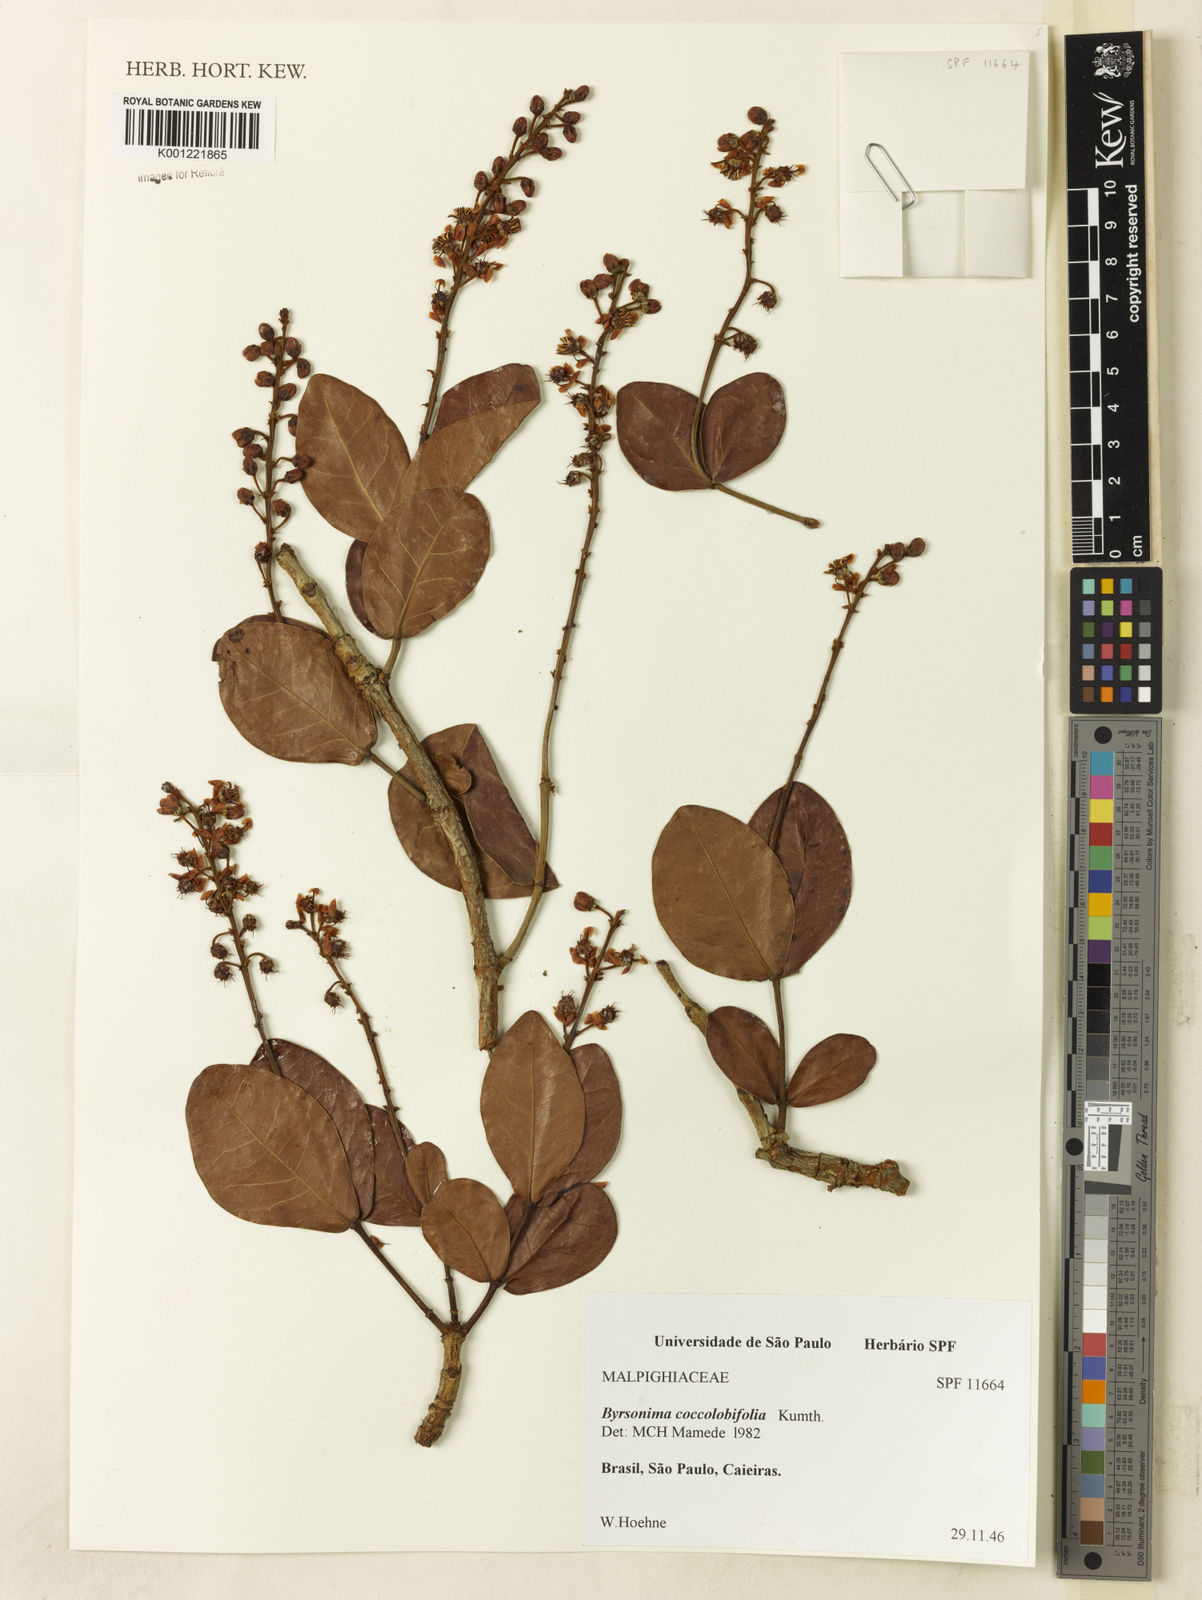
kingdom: Plantae
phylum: Tracheophyta
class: Magnoliopsida
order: Malpighiales
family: Malpighiaceae
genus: Byrsonima
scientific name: Byrsonima coccolobifolia
